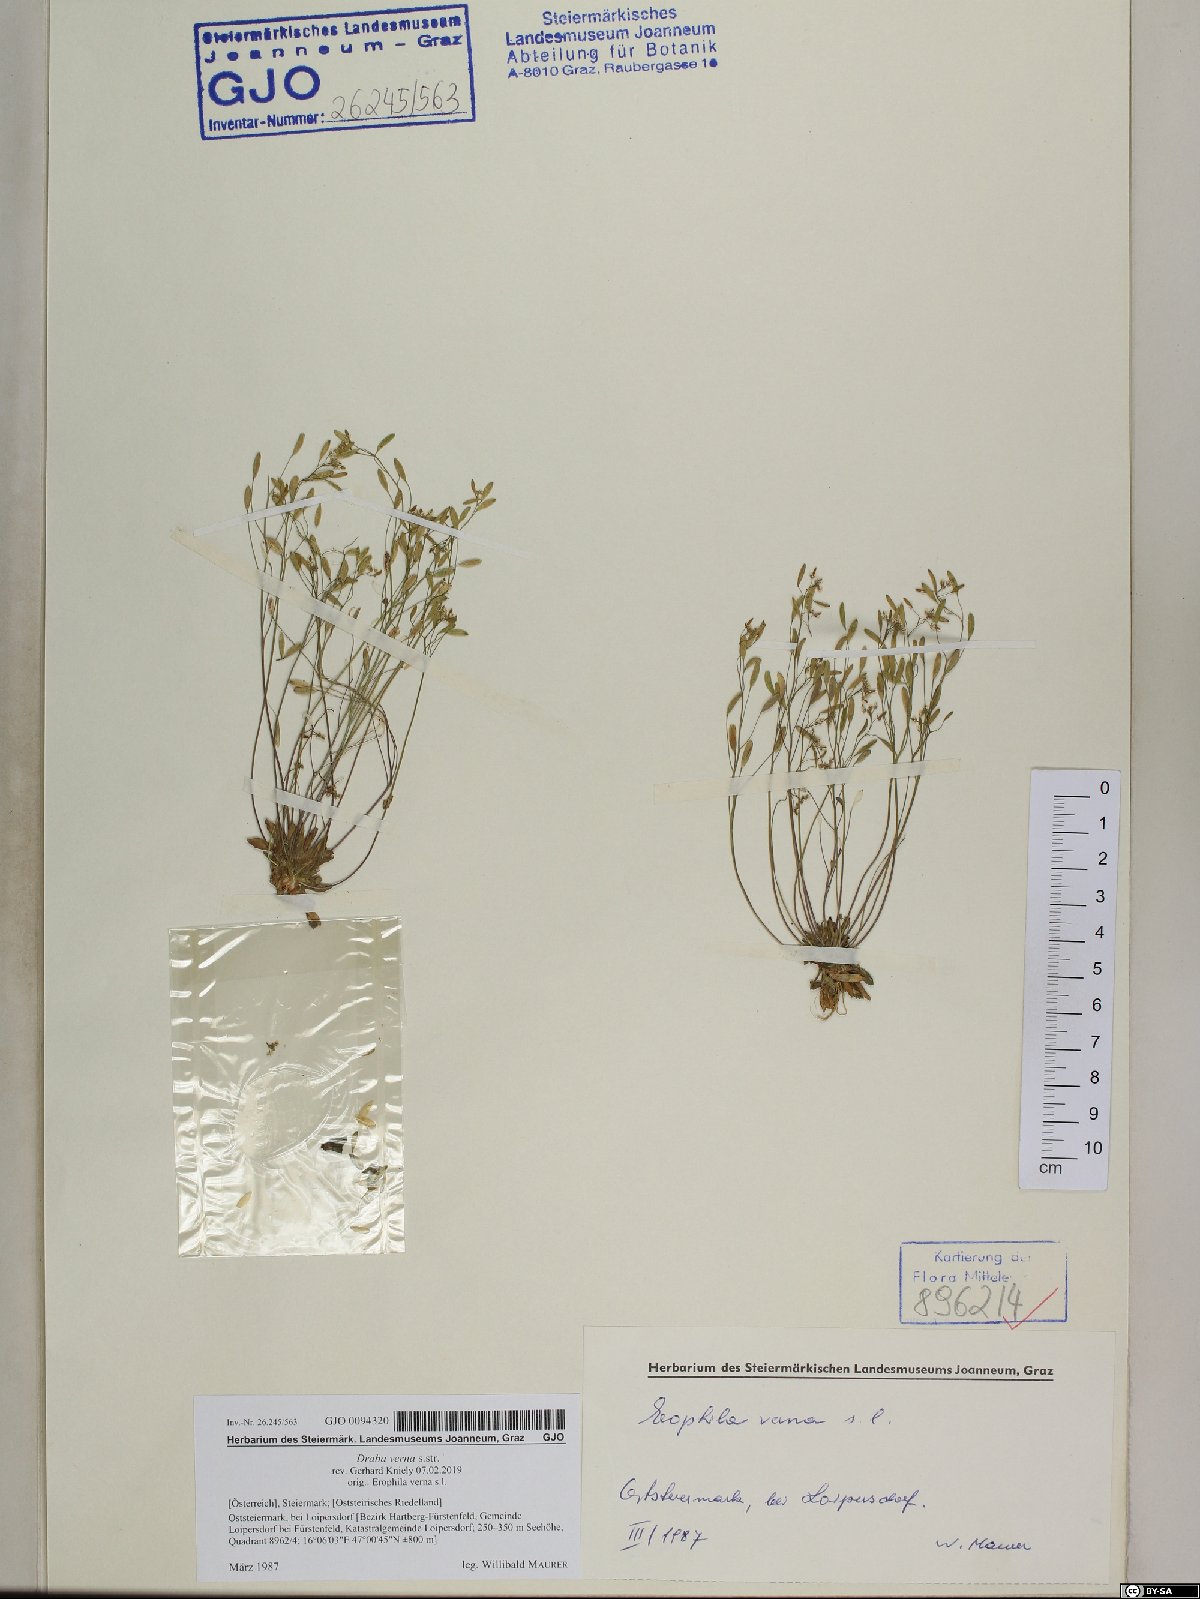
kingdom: Plantae
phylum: Tracheophyta
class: Magnoliopsida
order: Brassicales
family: Brassicaceae
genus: Draba
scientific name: Draba verna
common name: Spring draba
